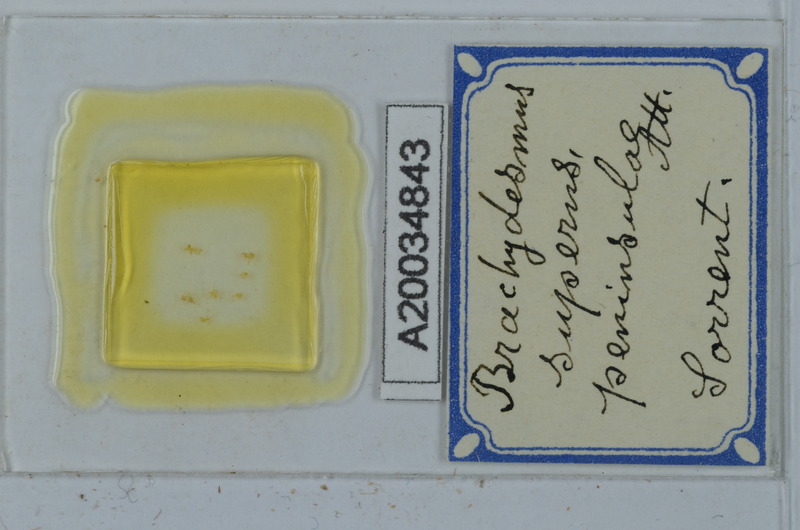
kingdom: Animalia
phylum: Arthropoda
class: Diplopoda
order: Polydesmida
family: Polydesmidae
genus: Brachydesmus
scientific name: Brachydesmus superus
